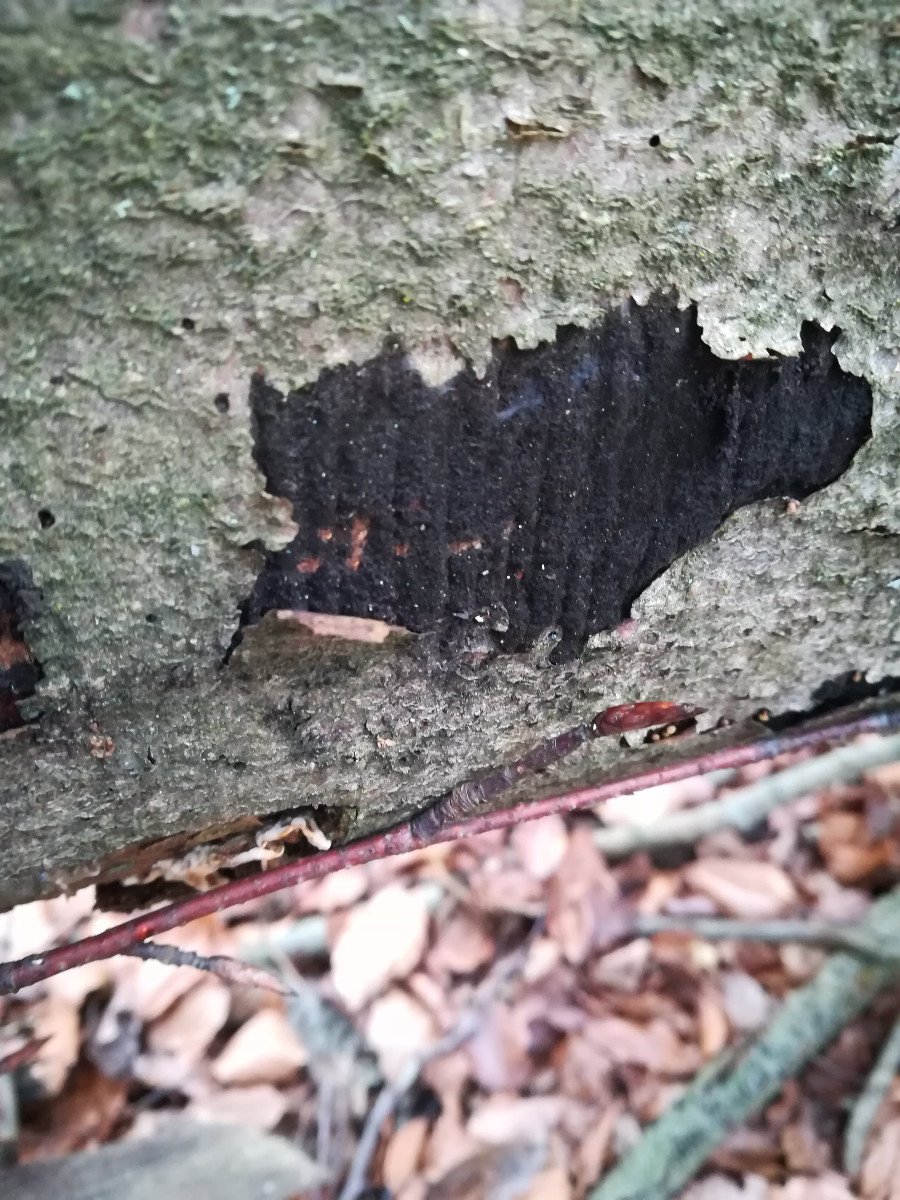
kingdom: Fungi
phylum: Ascomycota
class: Sordariomycetes
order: Xylariales
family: Diatrypaceae
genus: Eutypa
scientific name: Eutypa spinosa
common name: grov kulskorpe
